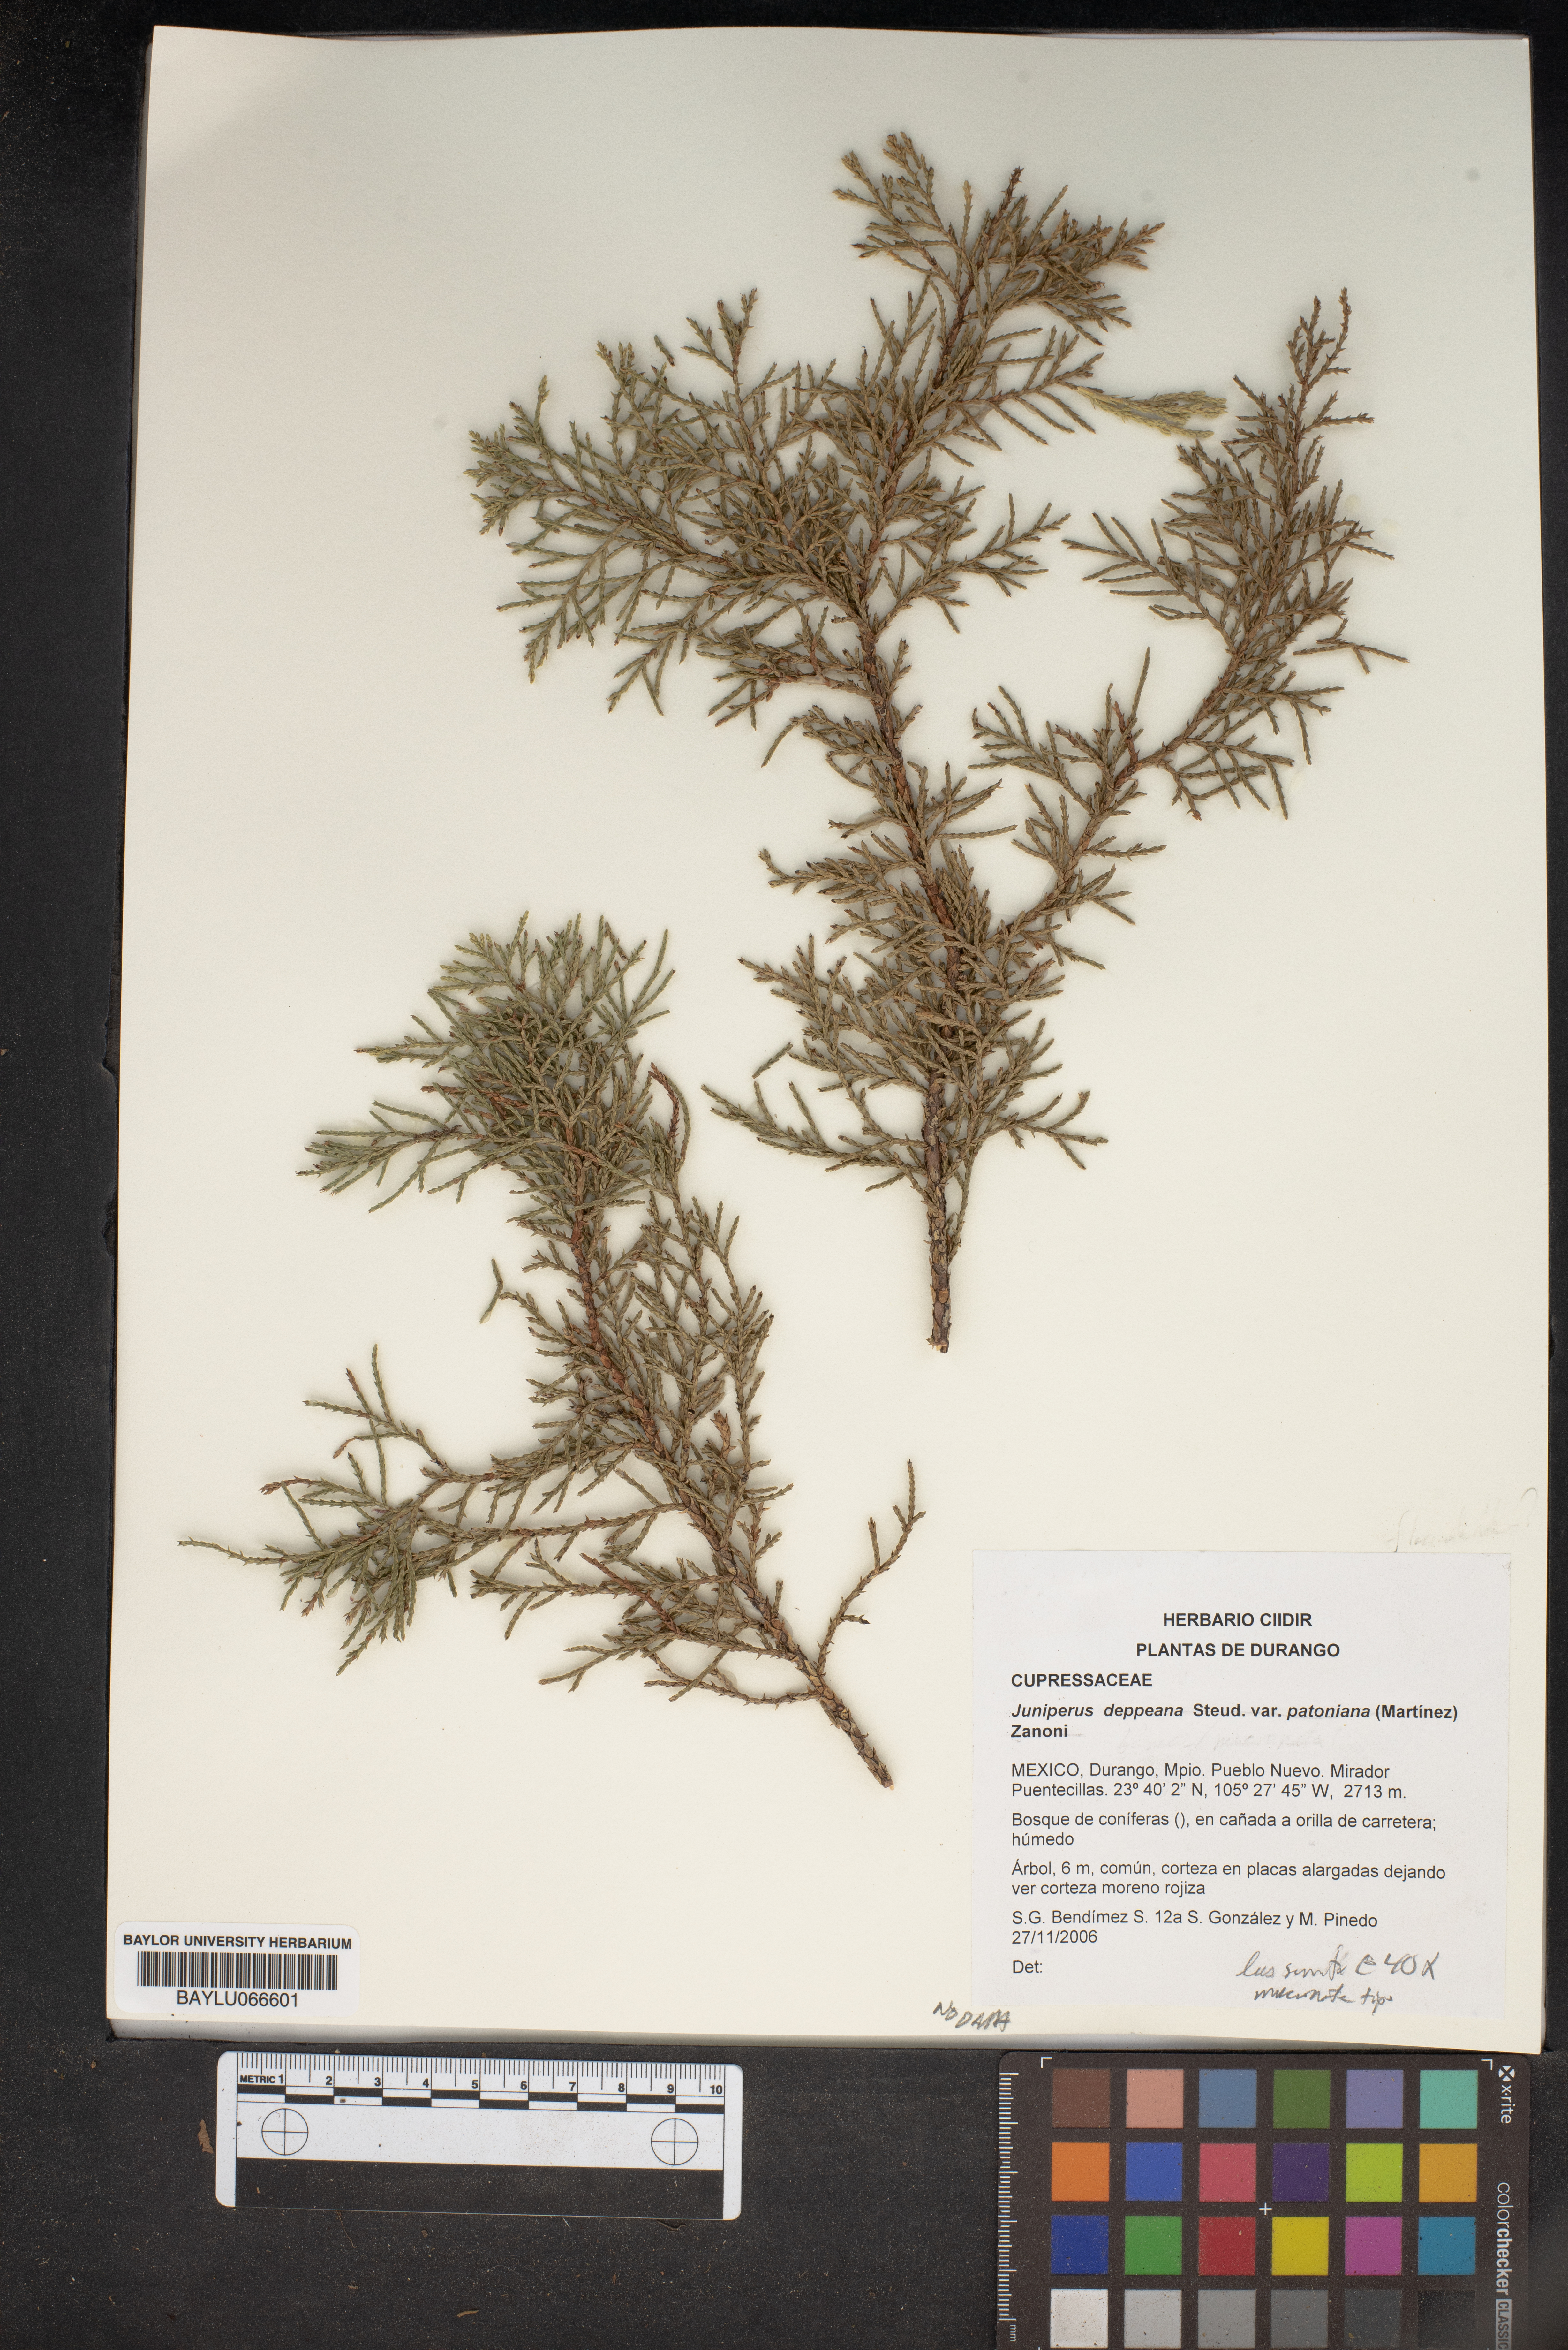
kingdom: Plantae
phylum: Tracheophyta
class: Pinopsida
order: Pinales
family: Cupressaceae
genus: Juniperus
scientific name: Juniperus deppeana
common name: Alligator juniper
